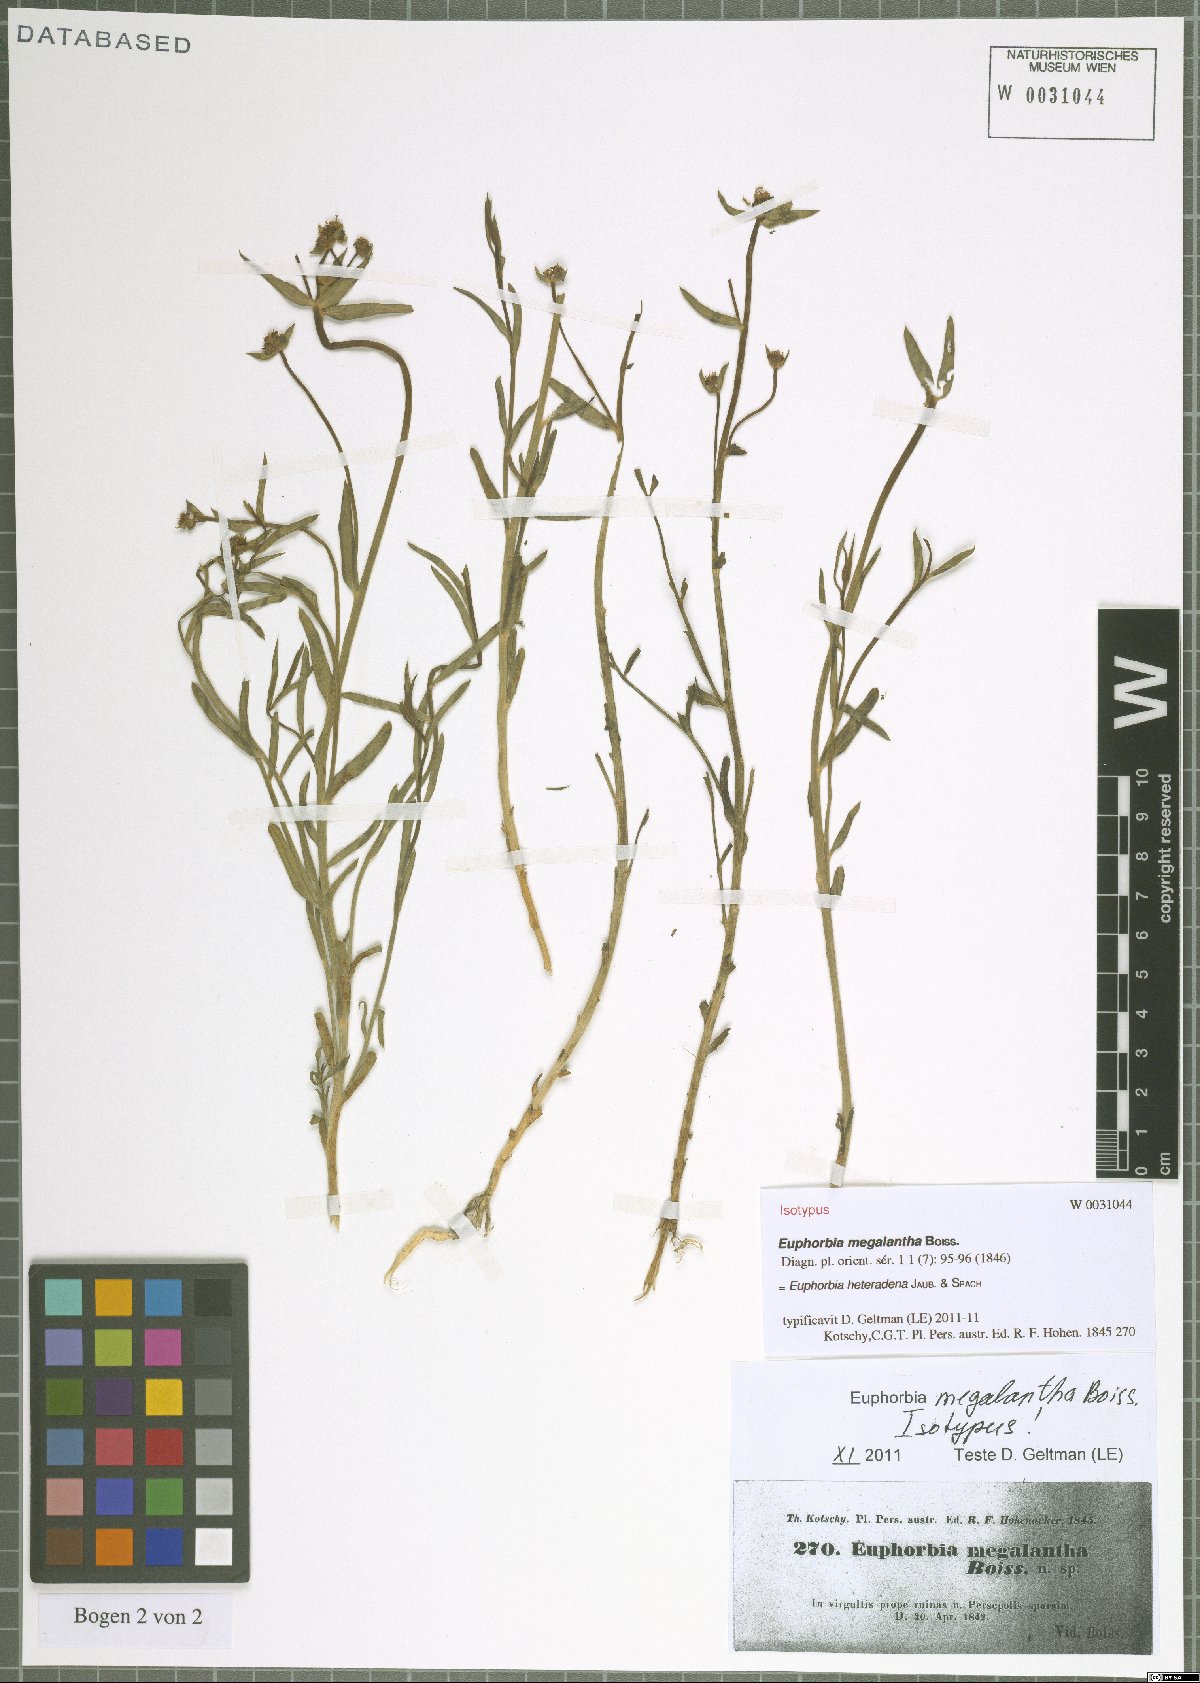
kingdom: Plantae
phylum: Tracheophyta
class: Magnoliopsida
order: Malpighiales
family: Euphorbiaceae
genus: Euphorbia
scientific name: Euphorbia heteradena
